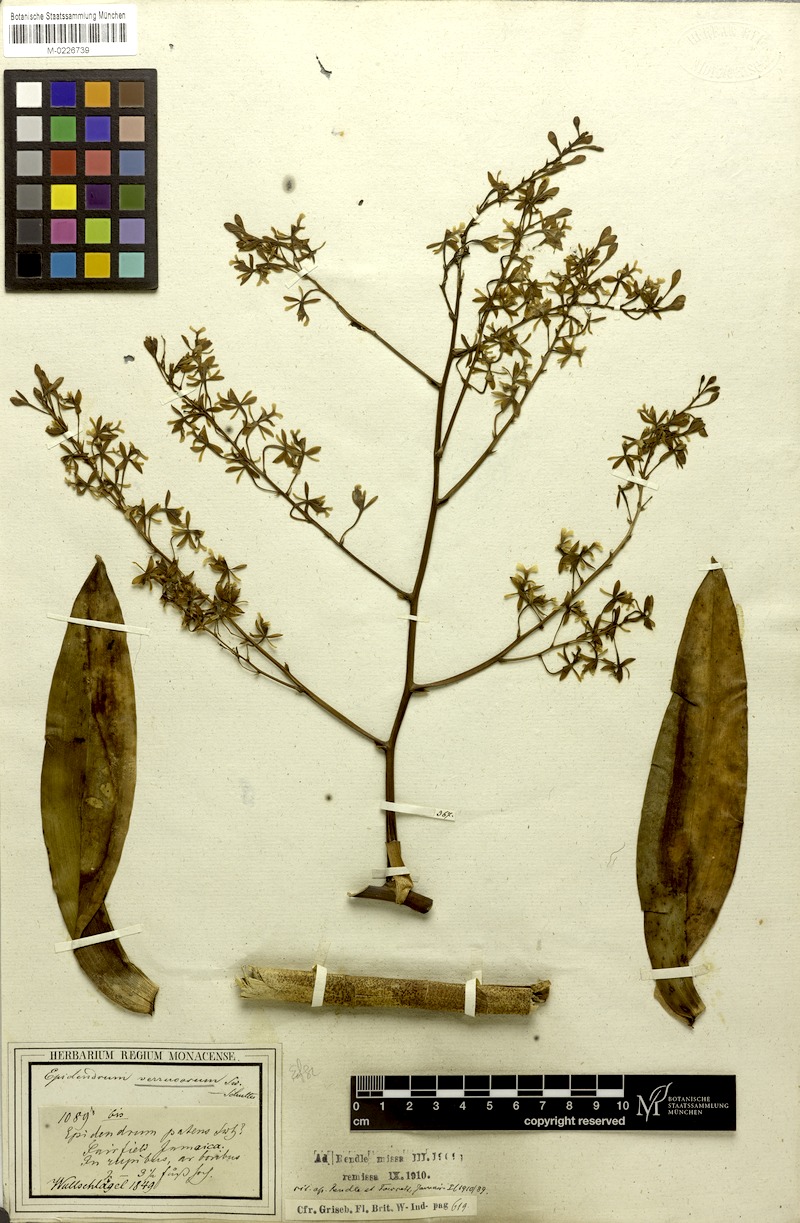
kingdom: Plantae
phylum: Tracheophyta
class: Liliopsida
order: Asparagales
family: Orchidaceae
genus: Epidendrum
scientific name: Epidendrum verrucosum
